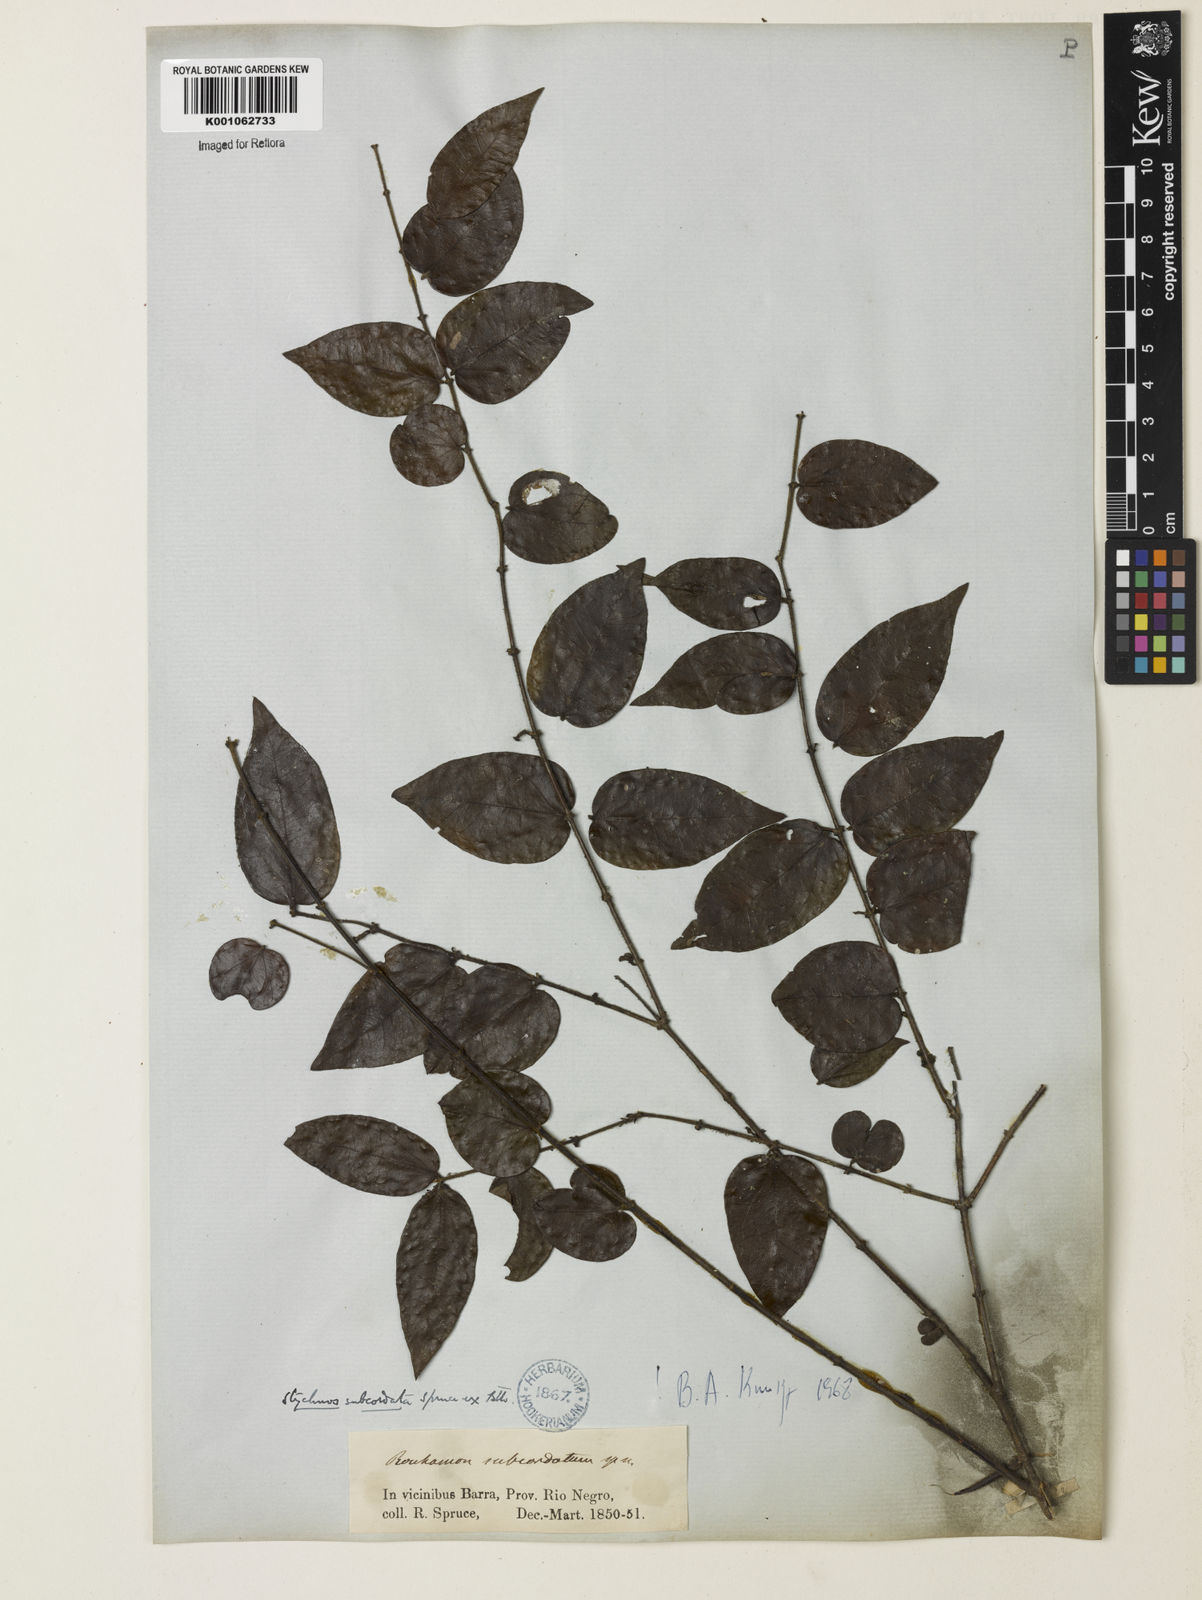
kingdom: Plantae
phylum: Tracheophyta
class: Magnoliopsida
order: Gentianales
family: Loganiaceae
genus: Strychnos
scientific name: Strychnos subcordata
